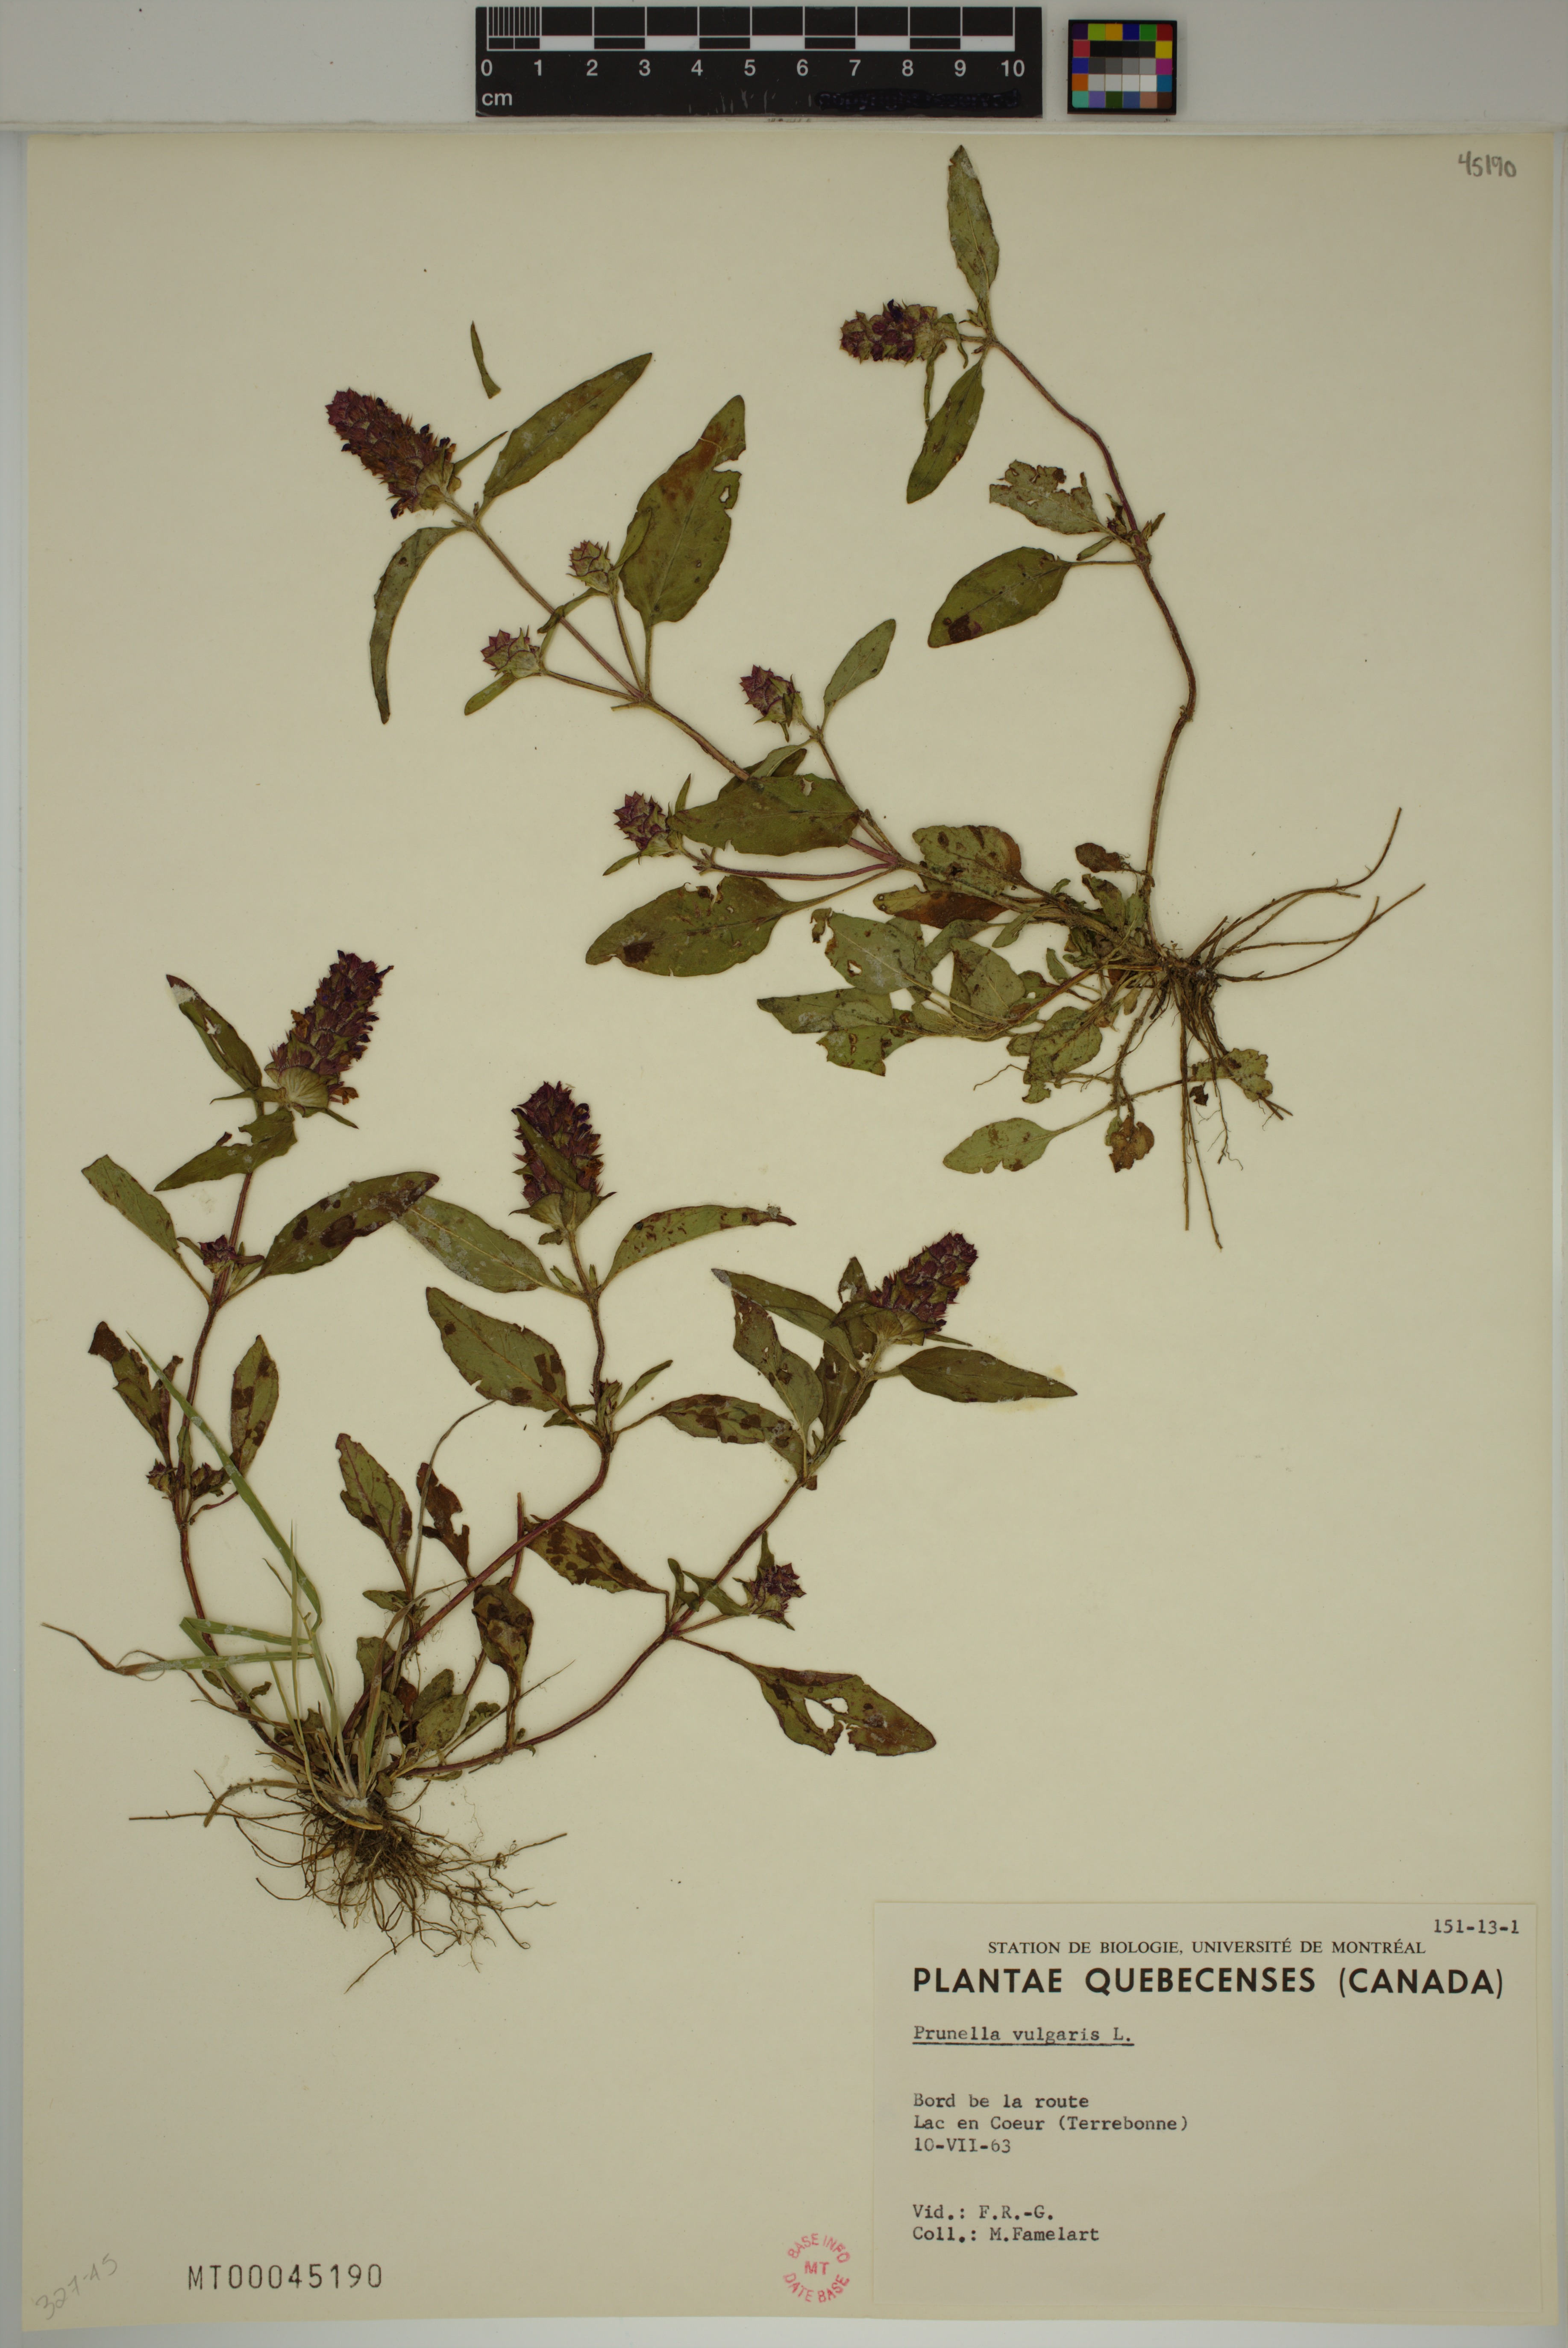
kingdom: Plantae
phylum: Tracheophyta
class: Magnoliopsida
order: Lamiales
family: Lamiaceae
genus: Prunella
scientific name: Prunella vulgaris
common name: Heal-all
